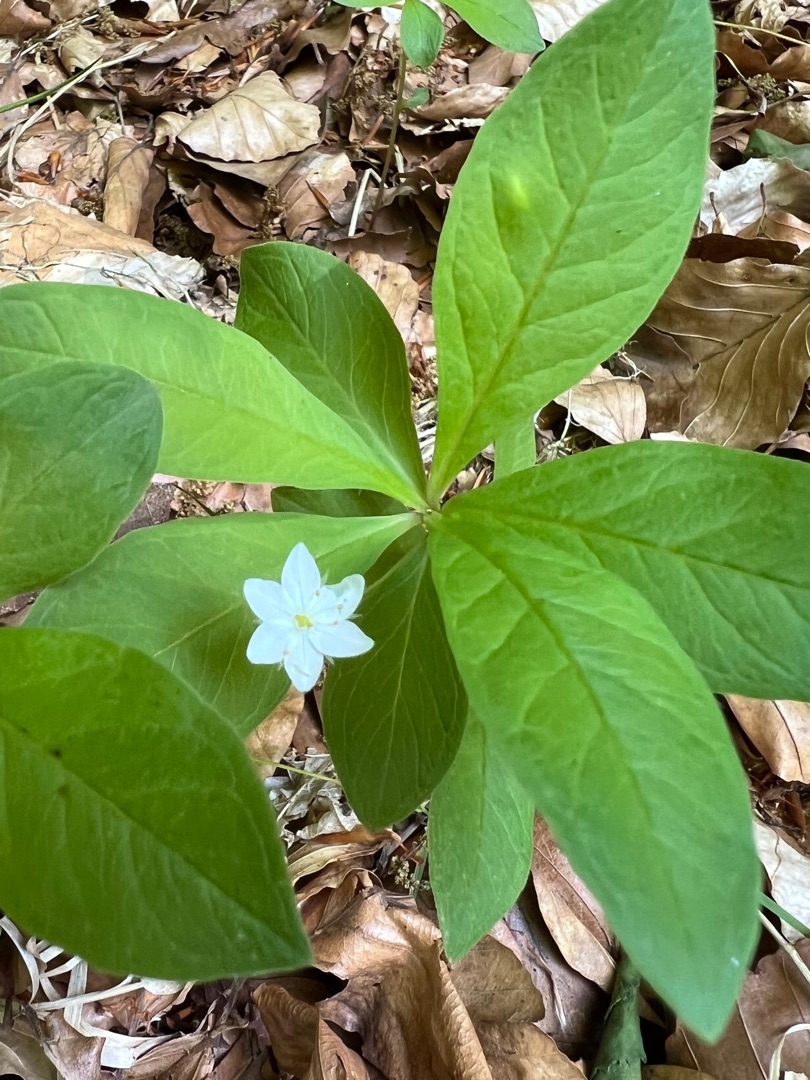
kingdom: Plantae
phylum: Tracheophyta
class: Magnoliopsida
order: Ericales
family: Primulaceae
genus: Lysimachia
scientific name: Lysimachia europaea
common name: Skovstjerne
